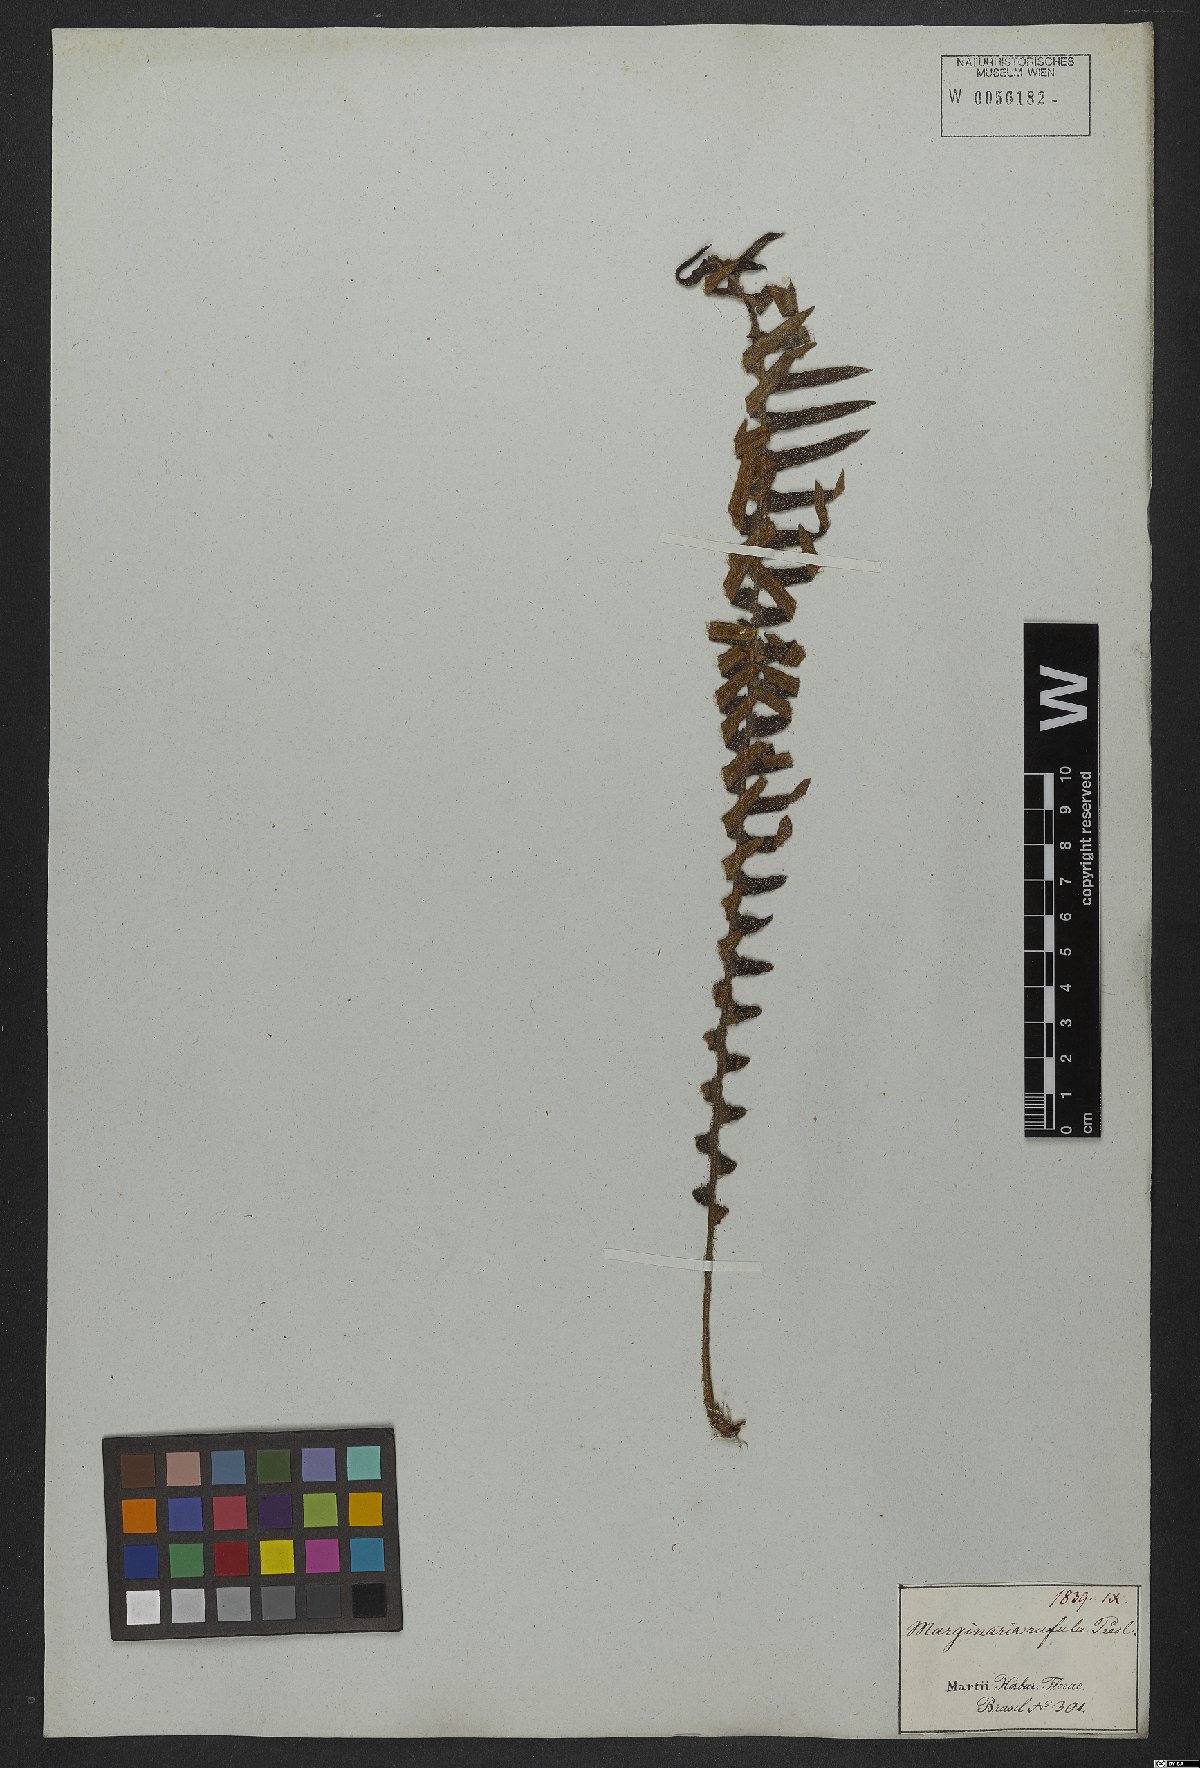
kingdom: Plantae
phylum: Tracheophyta
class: Polypodiopsida
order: Polypodiales
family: Polypodiaceae
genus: Pleopeltis
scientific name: Pleopeltis lepidopteris
